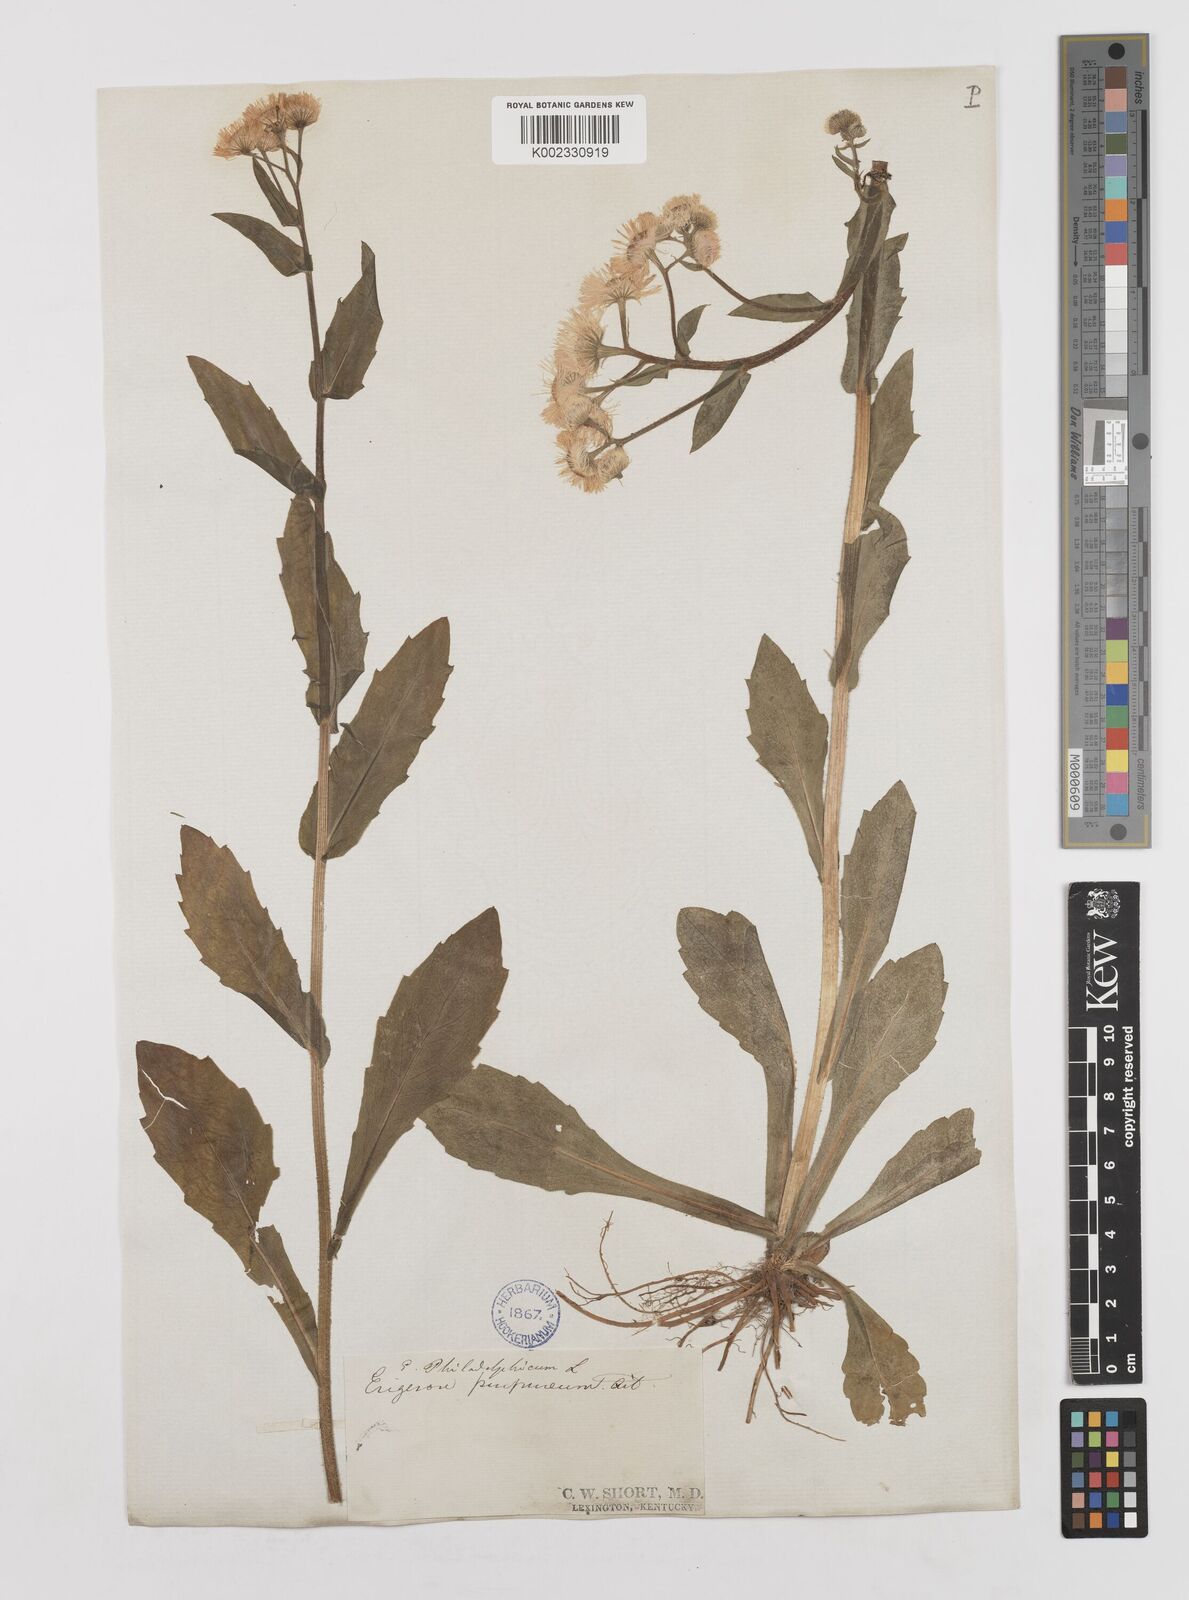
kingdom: Plantae
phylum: Tracheophyta
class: Magnoliopsida
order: Asterales
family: Asteraceae
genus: Erigeron
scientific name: Erigeron philadelphicus
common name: Robin's-plantain
